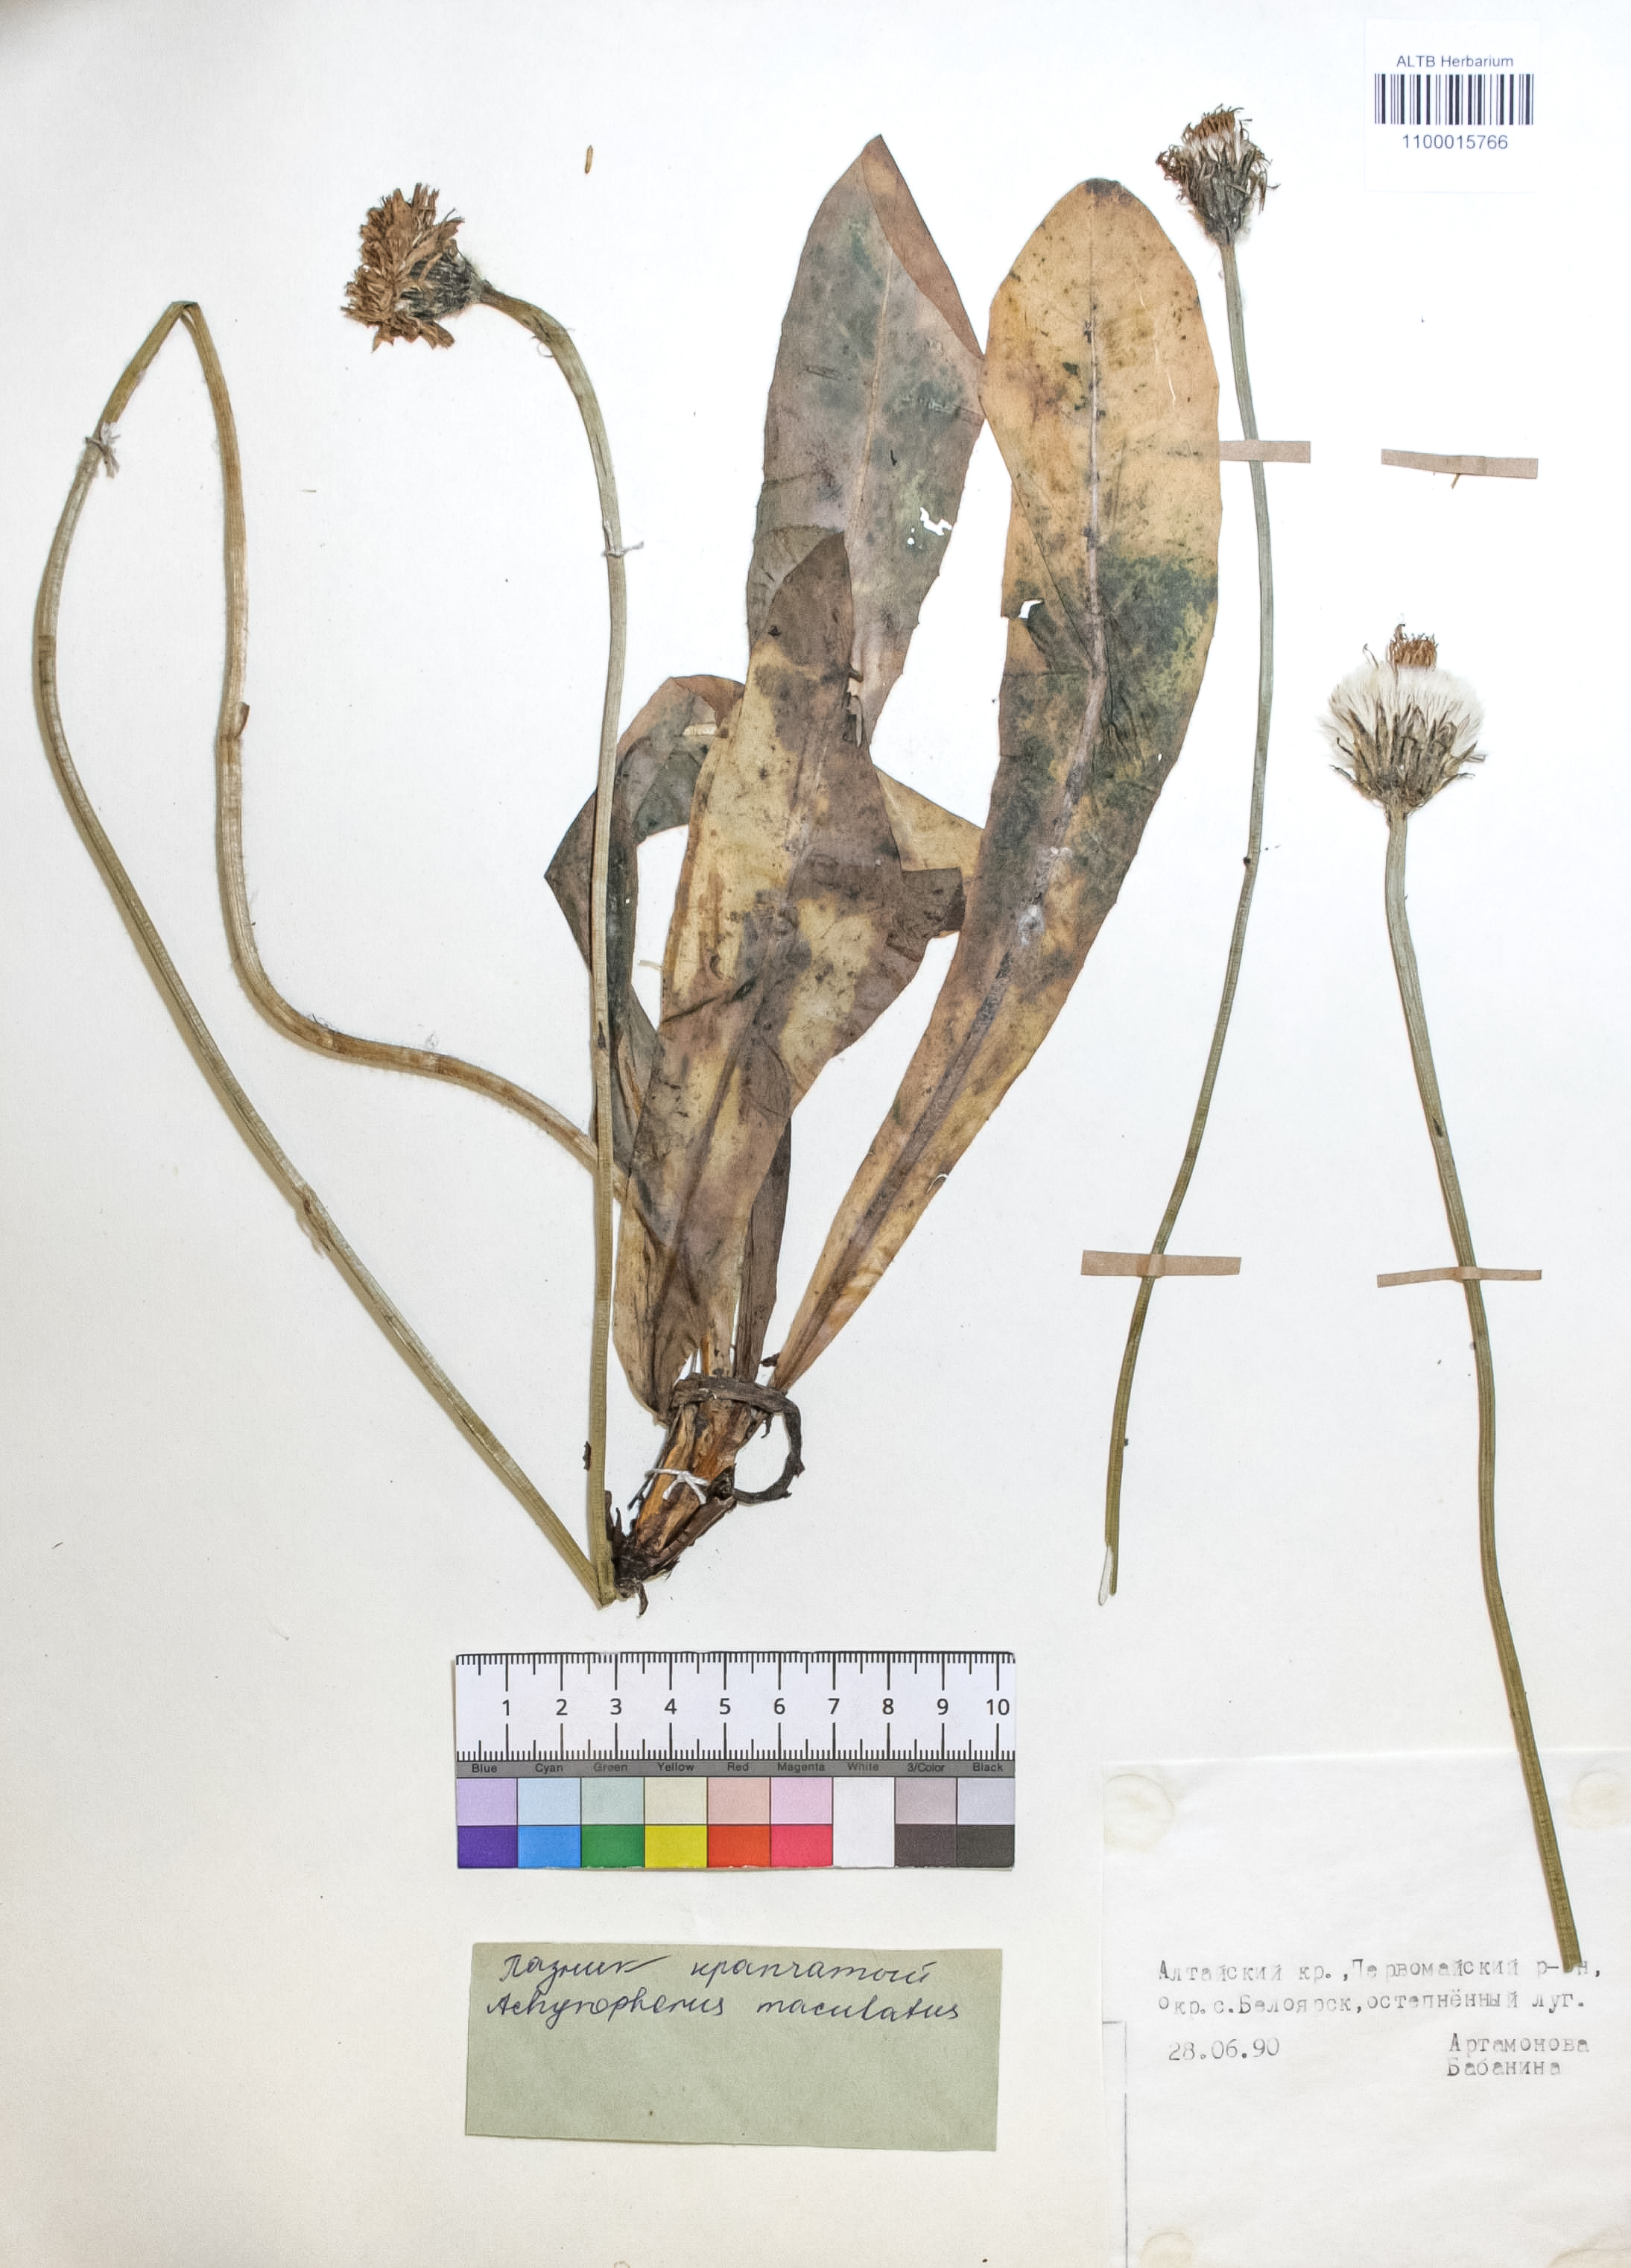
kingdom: Plantae
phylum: Tracheophyta
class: Magnoliopsida
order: Asterales
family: Asteraceae
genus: Trommsdorffia
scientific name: Trommsdorffia maculata
